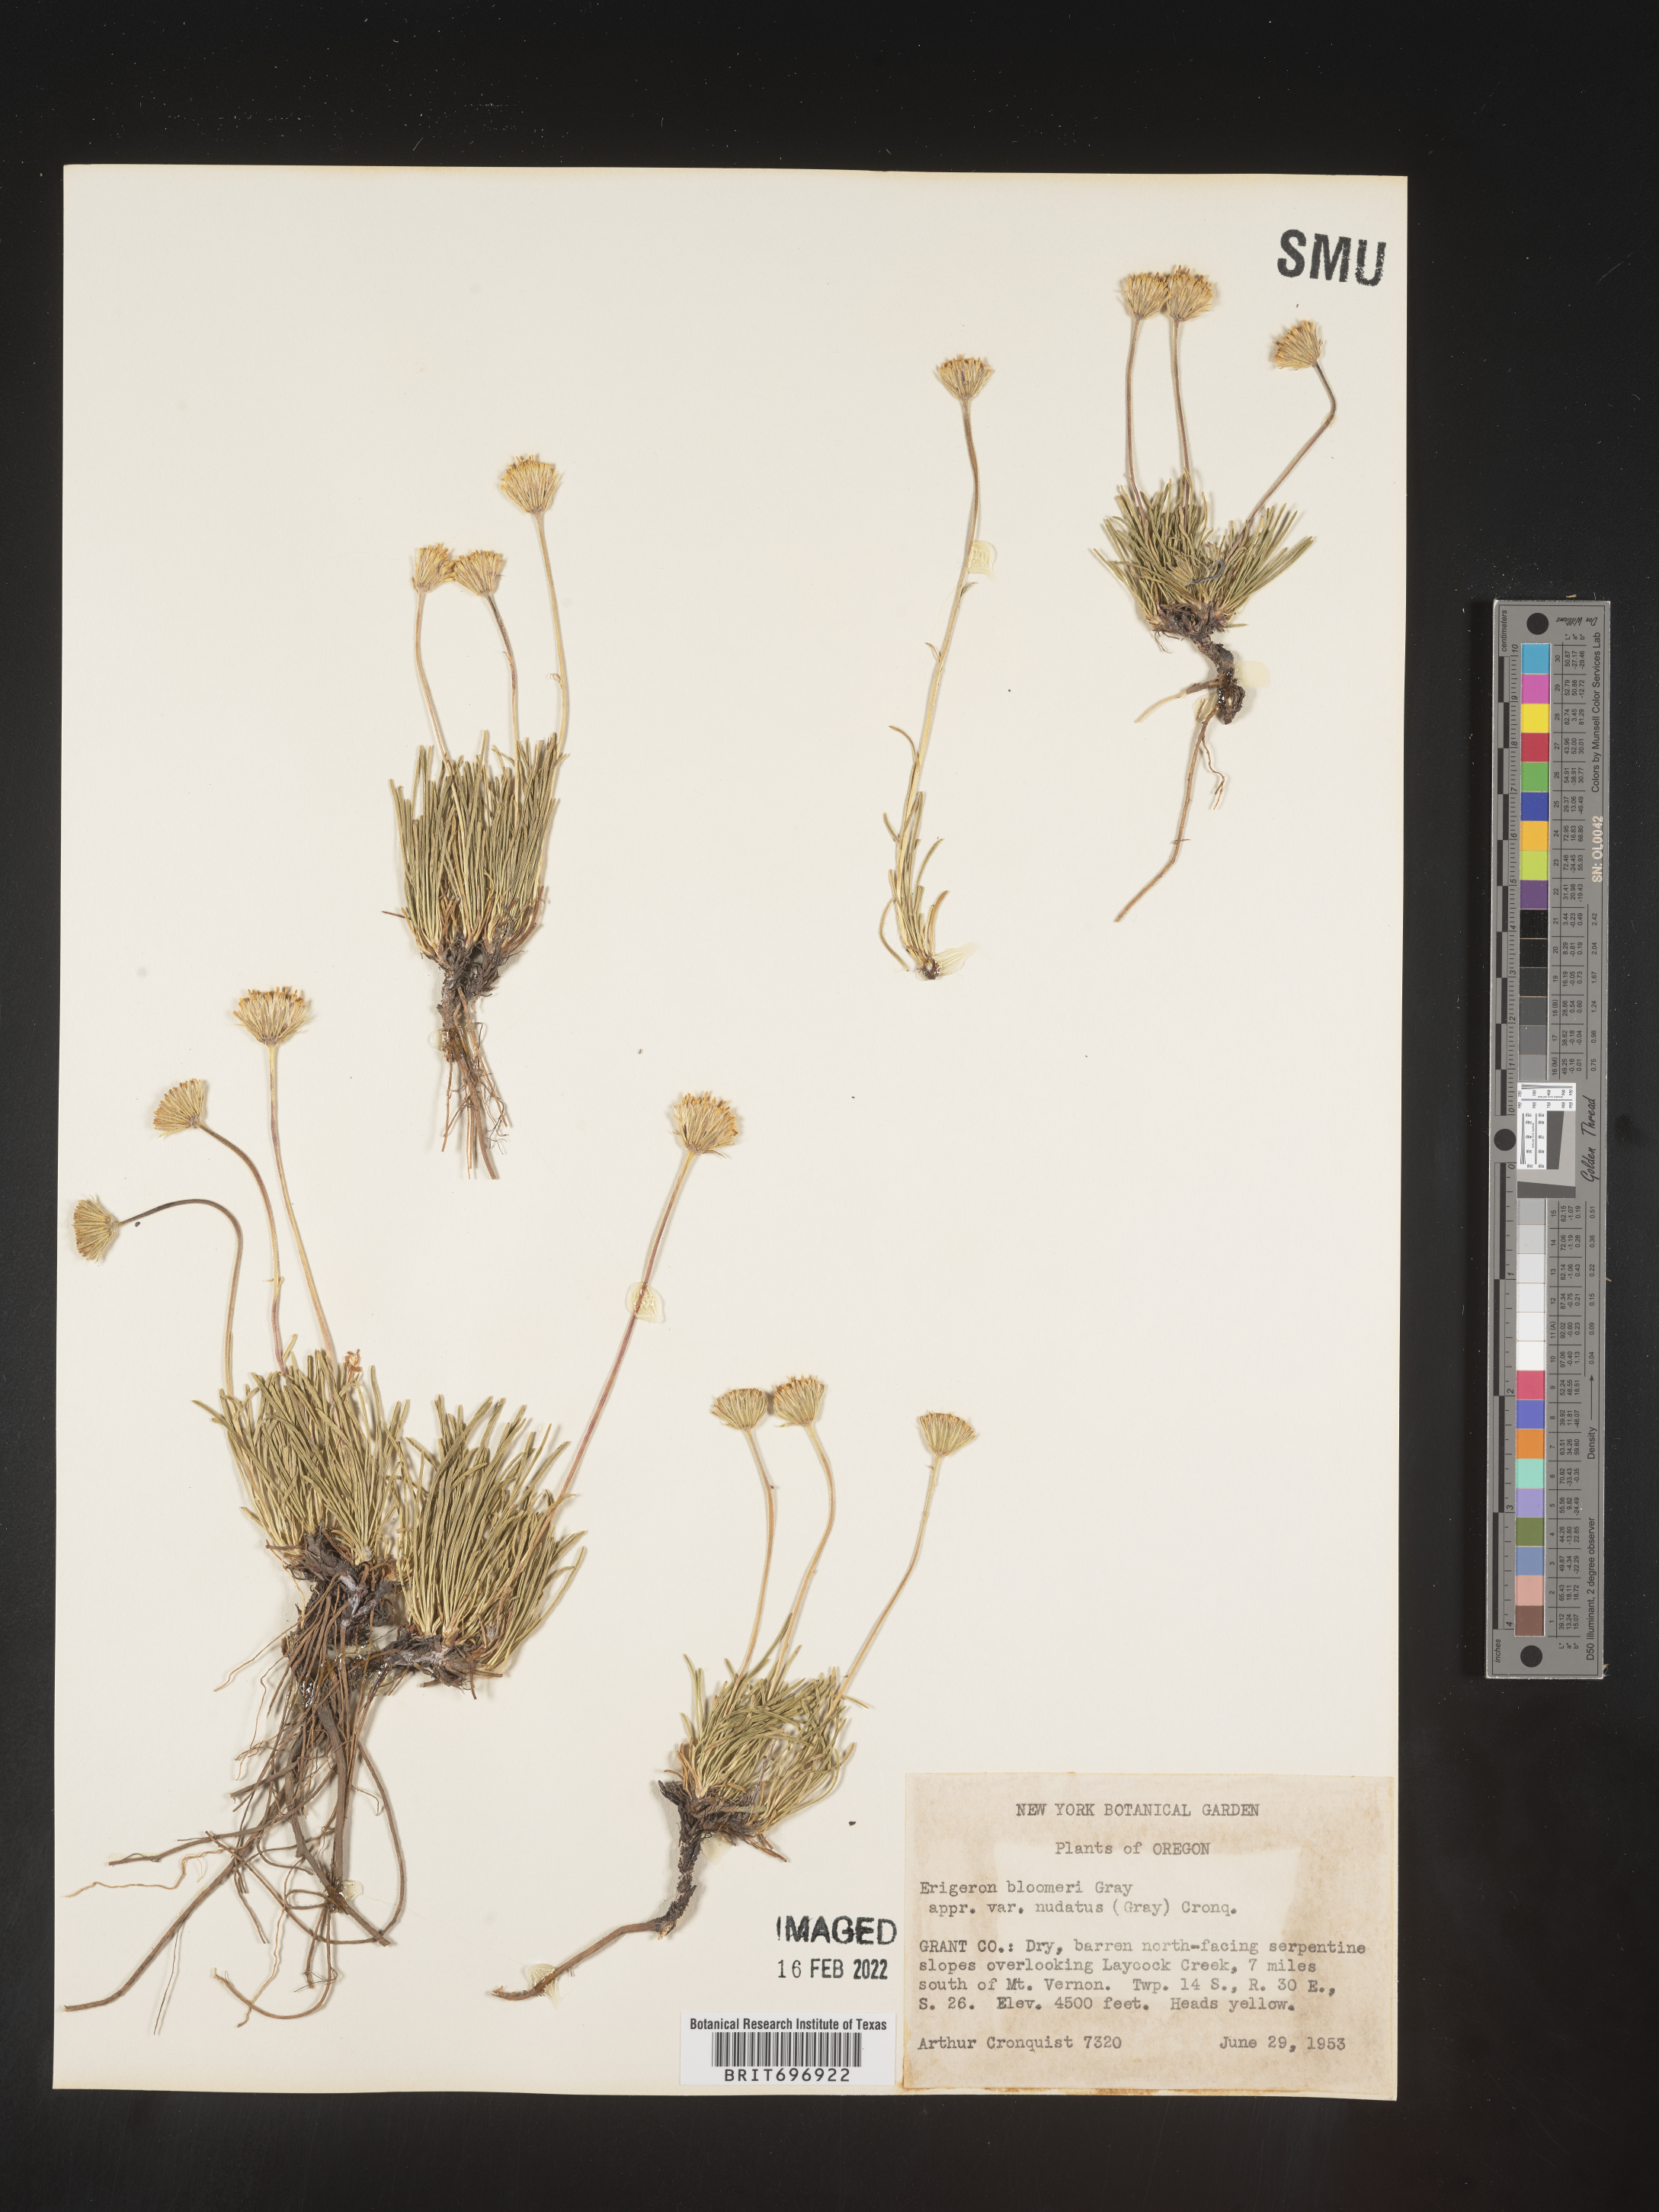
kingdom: Plantae
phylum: Tracheophyta
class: Magnoliopsida
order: Asterales
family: Asteraceae
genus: Erigeron
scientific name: Erigeron bloomeri
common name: Bloomer's fleabane
